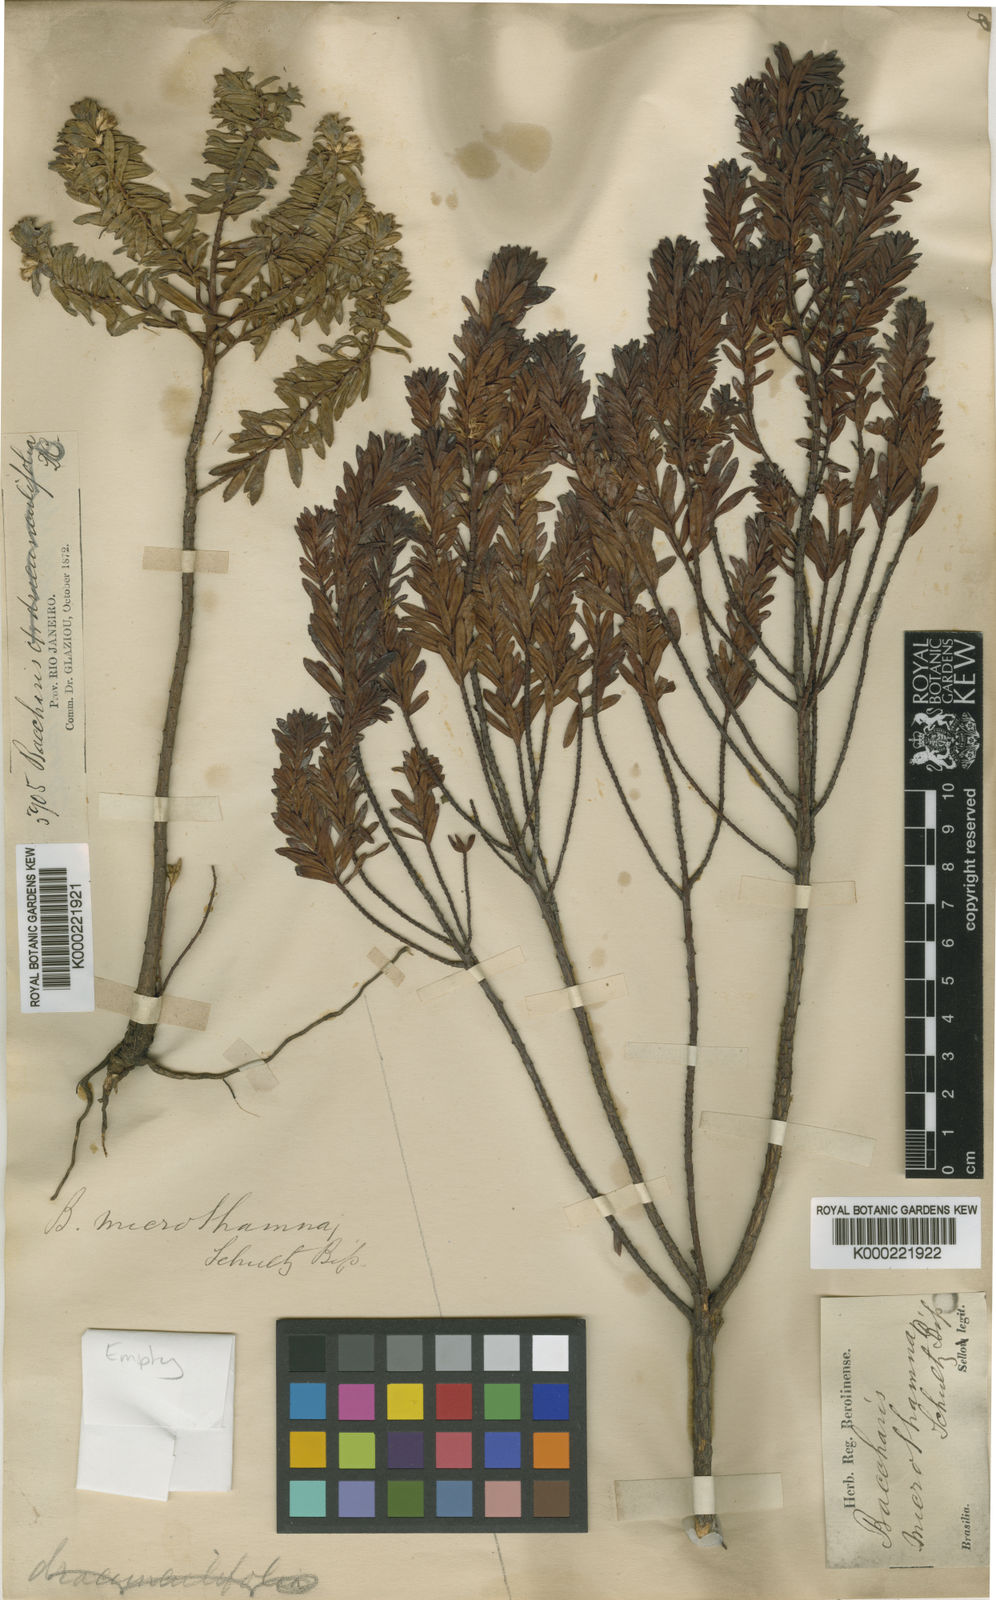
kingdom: Plantae
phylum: Tracheophyta
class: Magnoliopsida
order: Asterales
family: Asteraceae
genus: Baccharis
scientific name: Baccharis
